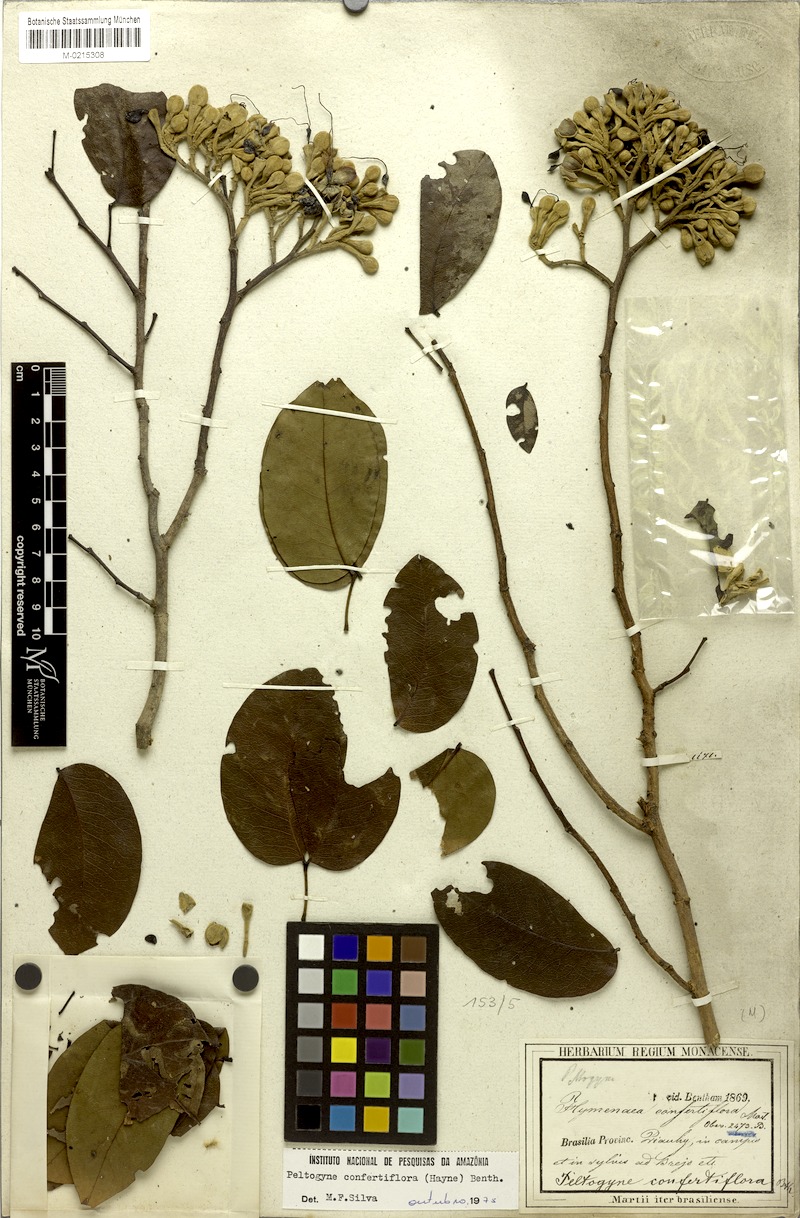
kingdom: Plantae
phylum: Tracheophyta
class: Magnoliopsida
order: Fabales
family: Fabaceae
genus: Peltogyne
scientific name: Peltogyne confertiflora
